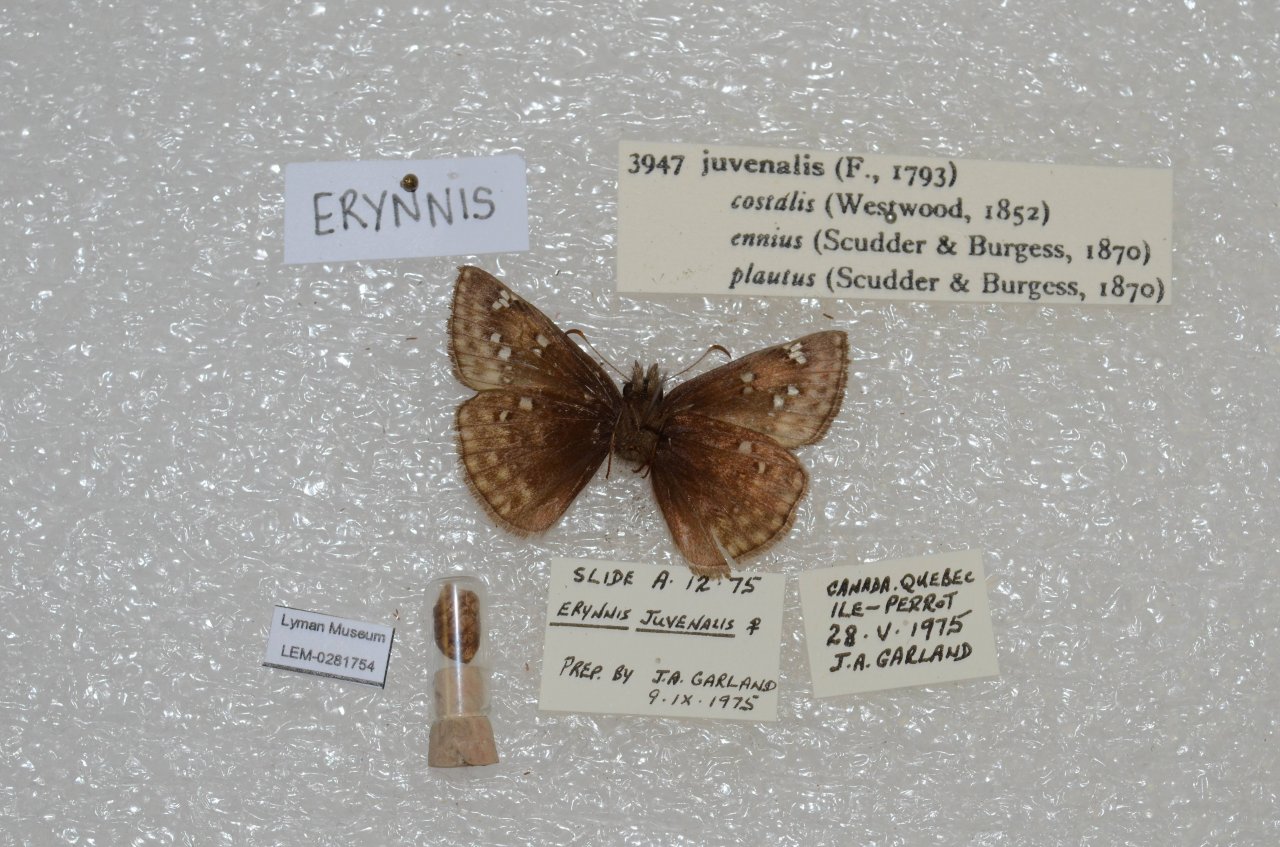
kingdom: Animalia
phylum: Arthropoda
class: Insecta
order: Lepidoptera
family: Hesperiidae
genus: Gesta
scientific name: Gesta
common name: Juvenal's Duskywing
